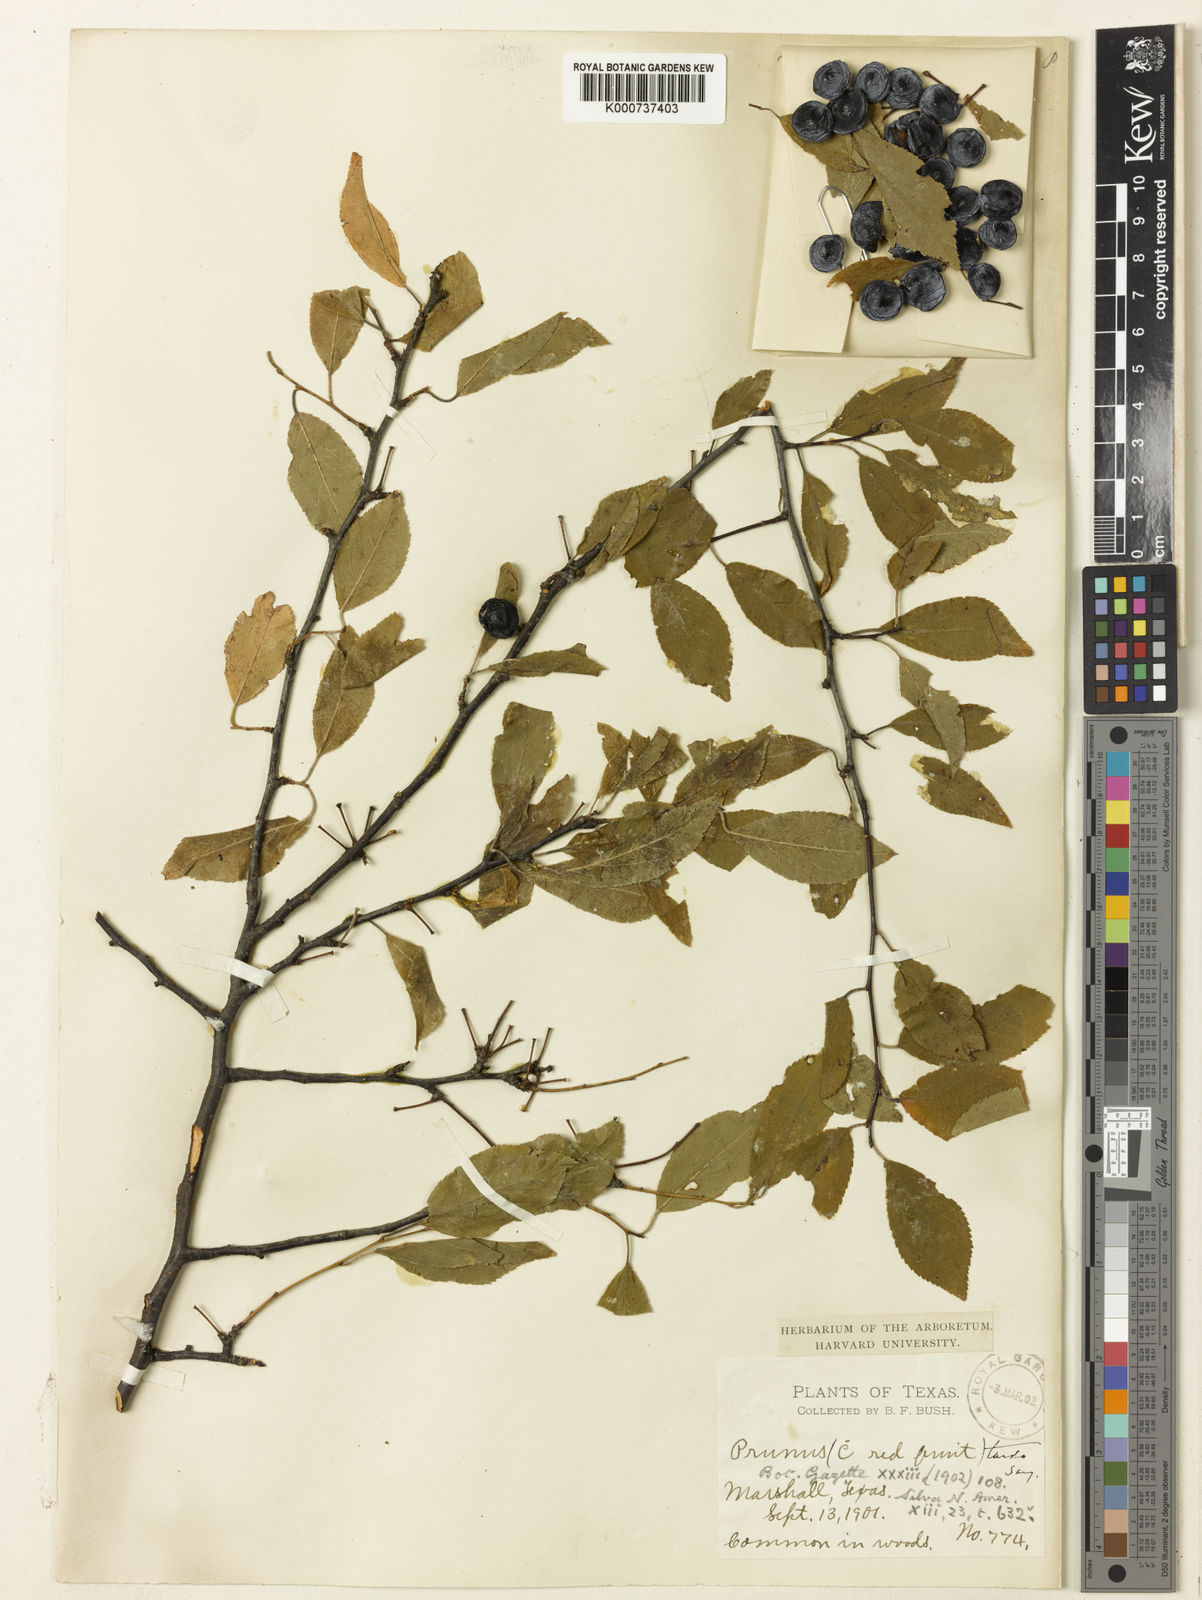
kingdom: Plantae
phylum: Tracheophyta
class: Magnoliopsida
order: Rosales
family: Rosaceae
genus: Prunus
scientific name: Prunus umbellata
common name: Allegheny plum
